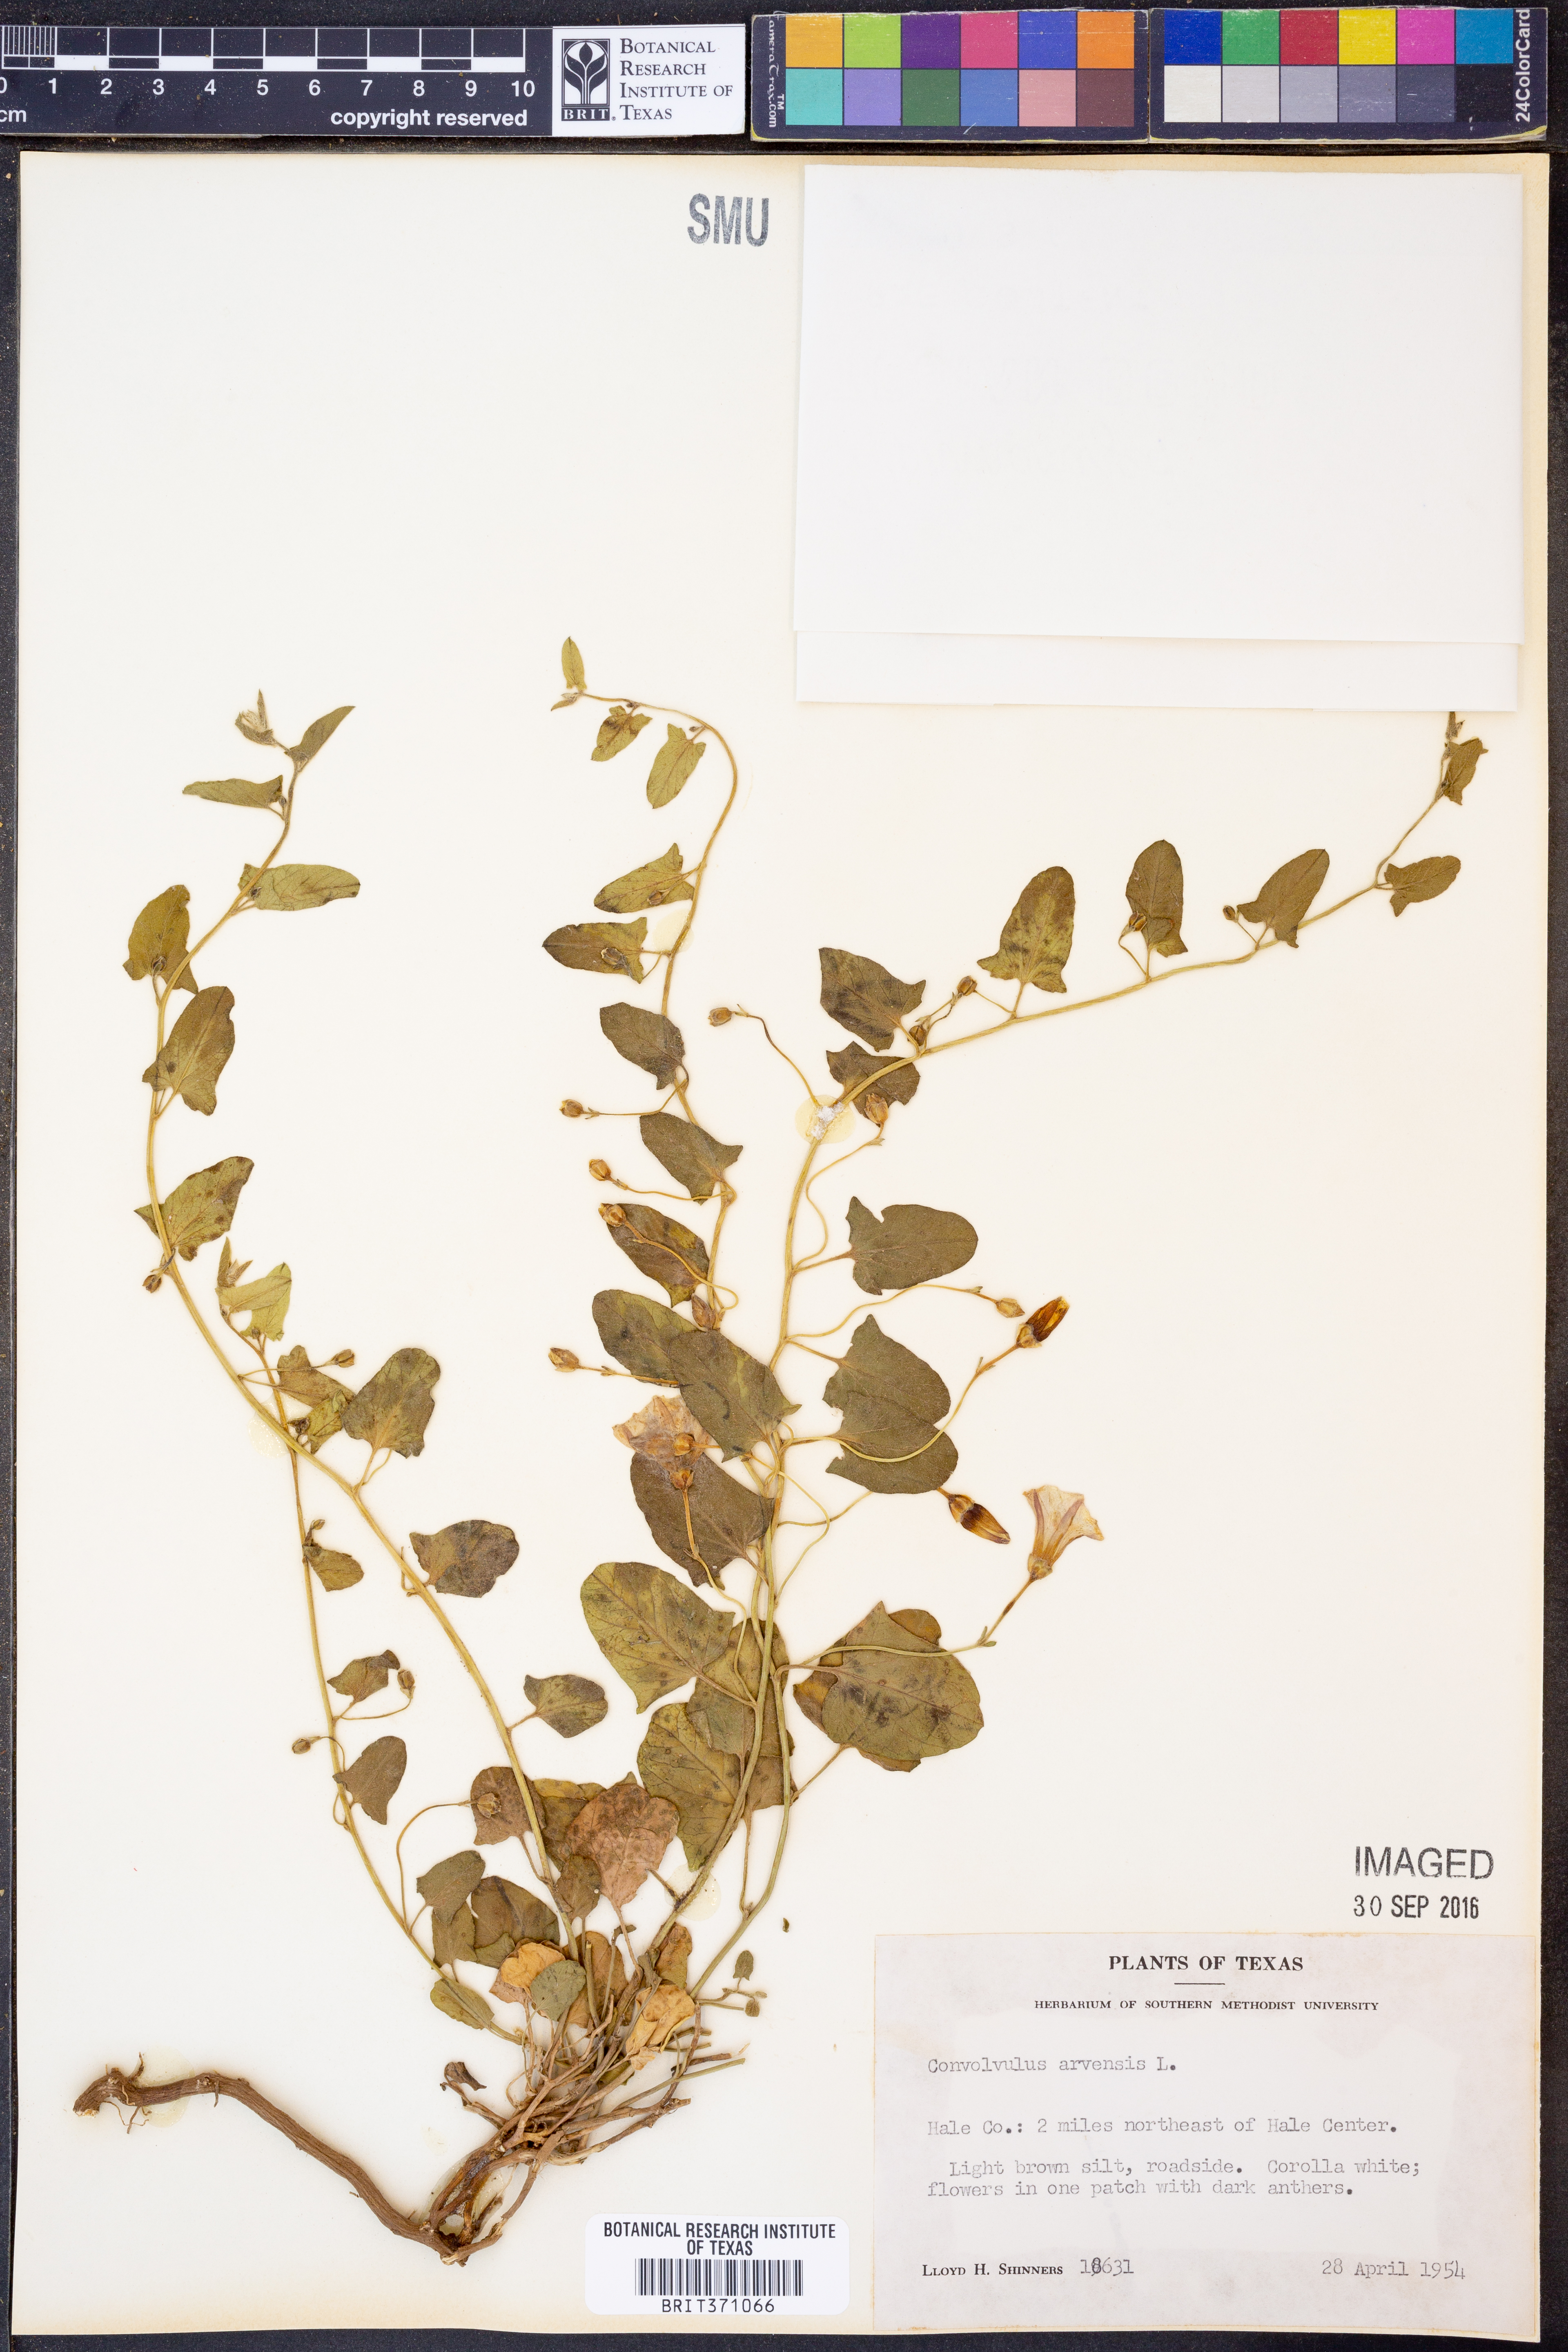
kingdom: Plantae
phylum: Tracheophyta
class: Magnoliopsida
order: Solanales
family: Convolvulaceae
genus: Convolvulus
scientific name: Convolvulus arvensis
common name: Field bindweed
